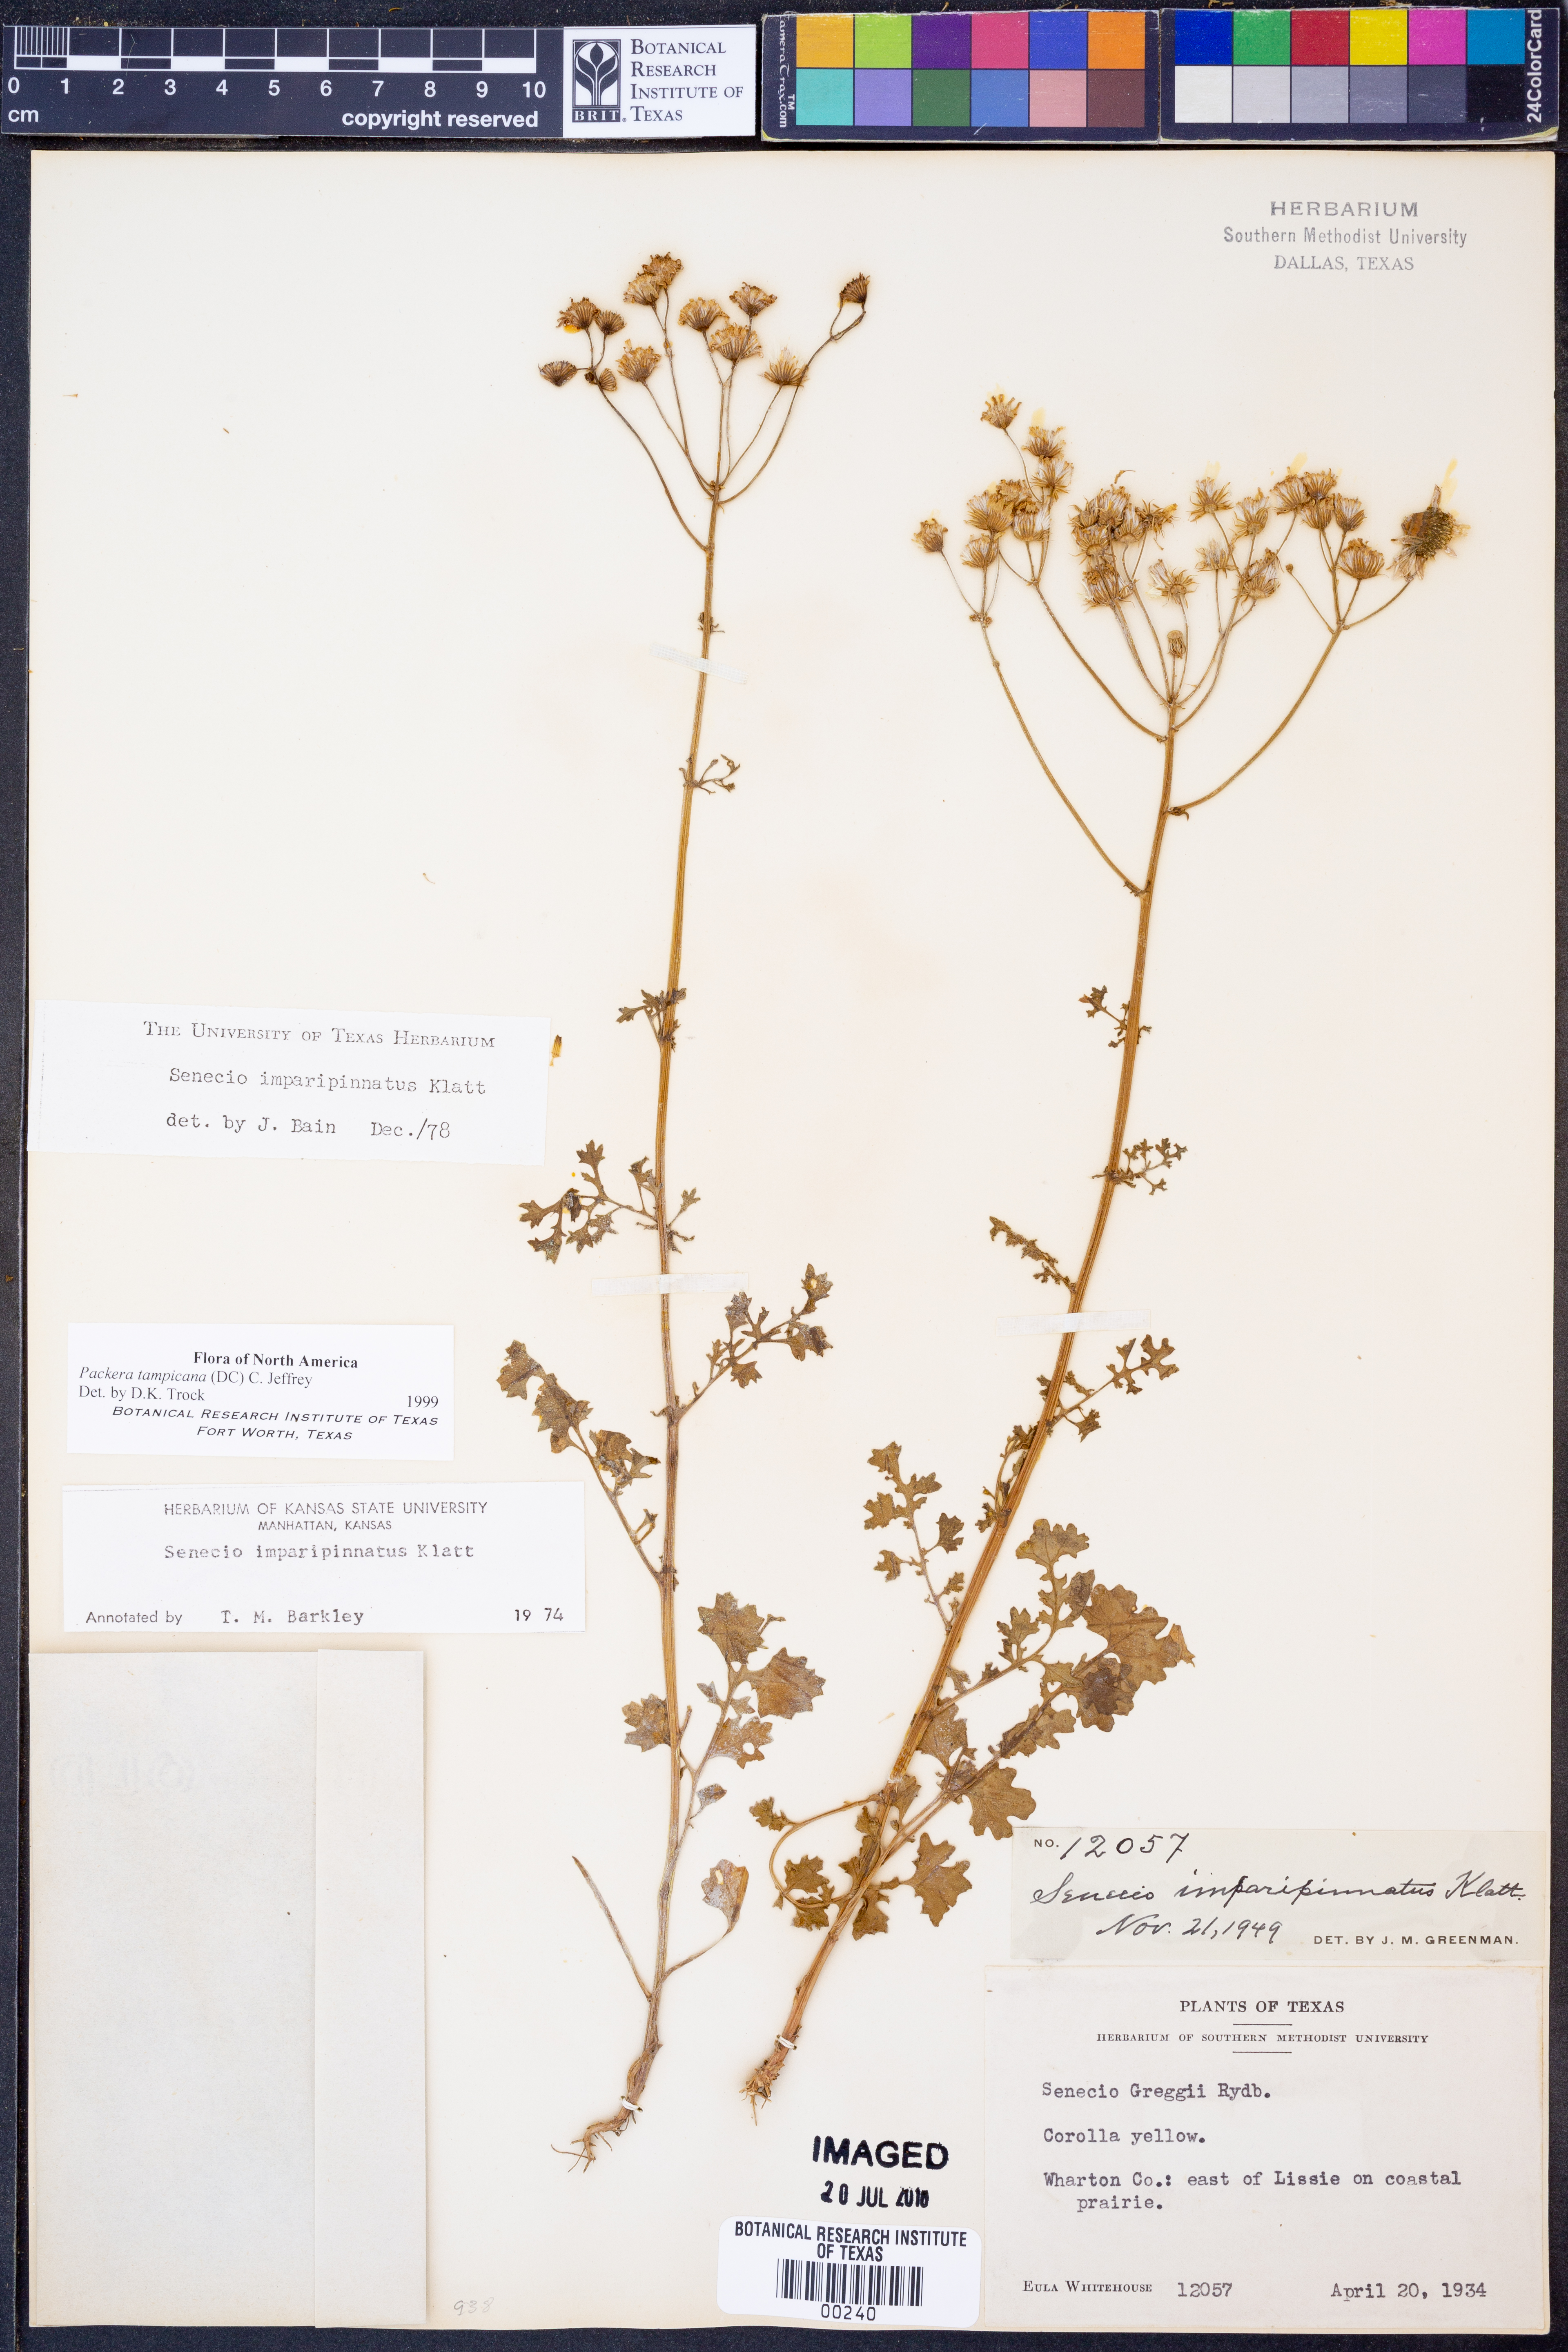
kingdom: Plantae
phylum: Tracheophyta
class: Magnoliopsida
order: Asterales
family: Asteraceae
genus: Packera
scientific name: Packera tampicana
